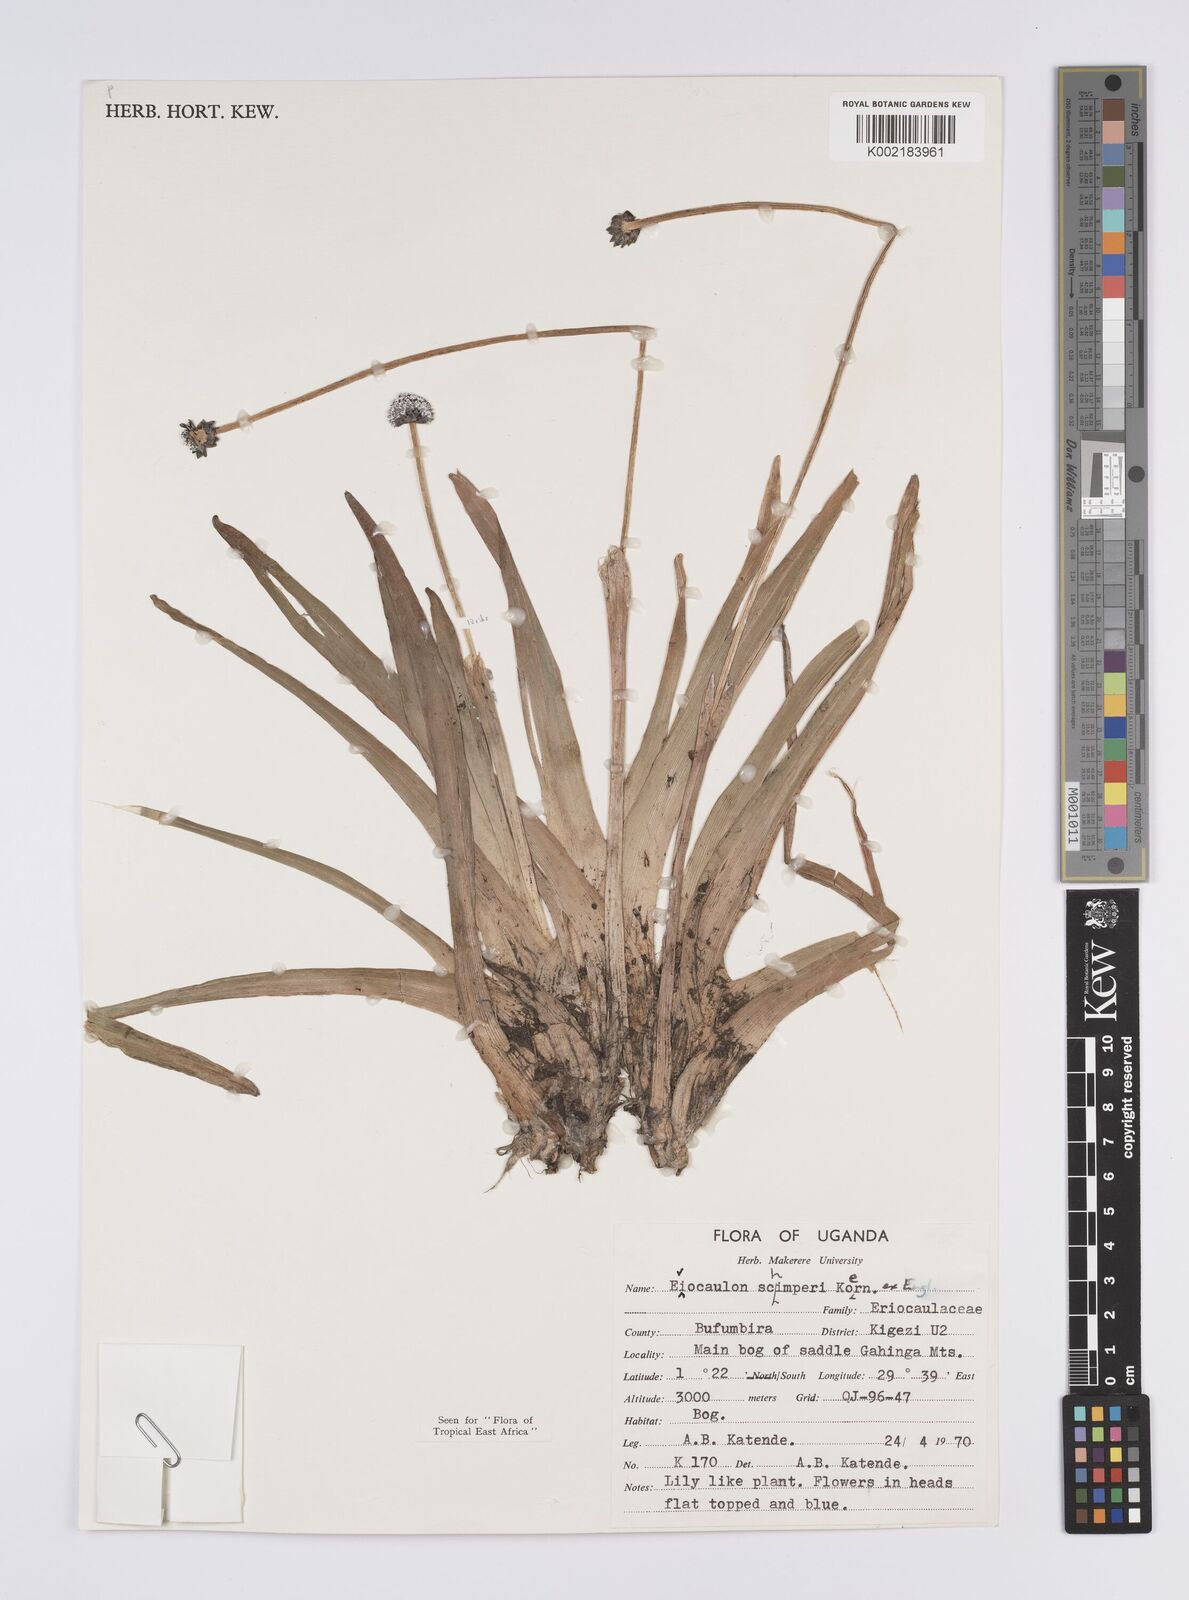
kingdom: Plantae
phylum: Tracheophyta
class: Liliopsida
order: Poales
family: Eriocaulaceae
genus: Eriocaulon
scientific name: Eriocaulon schimperi
